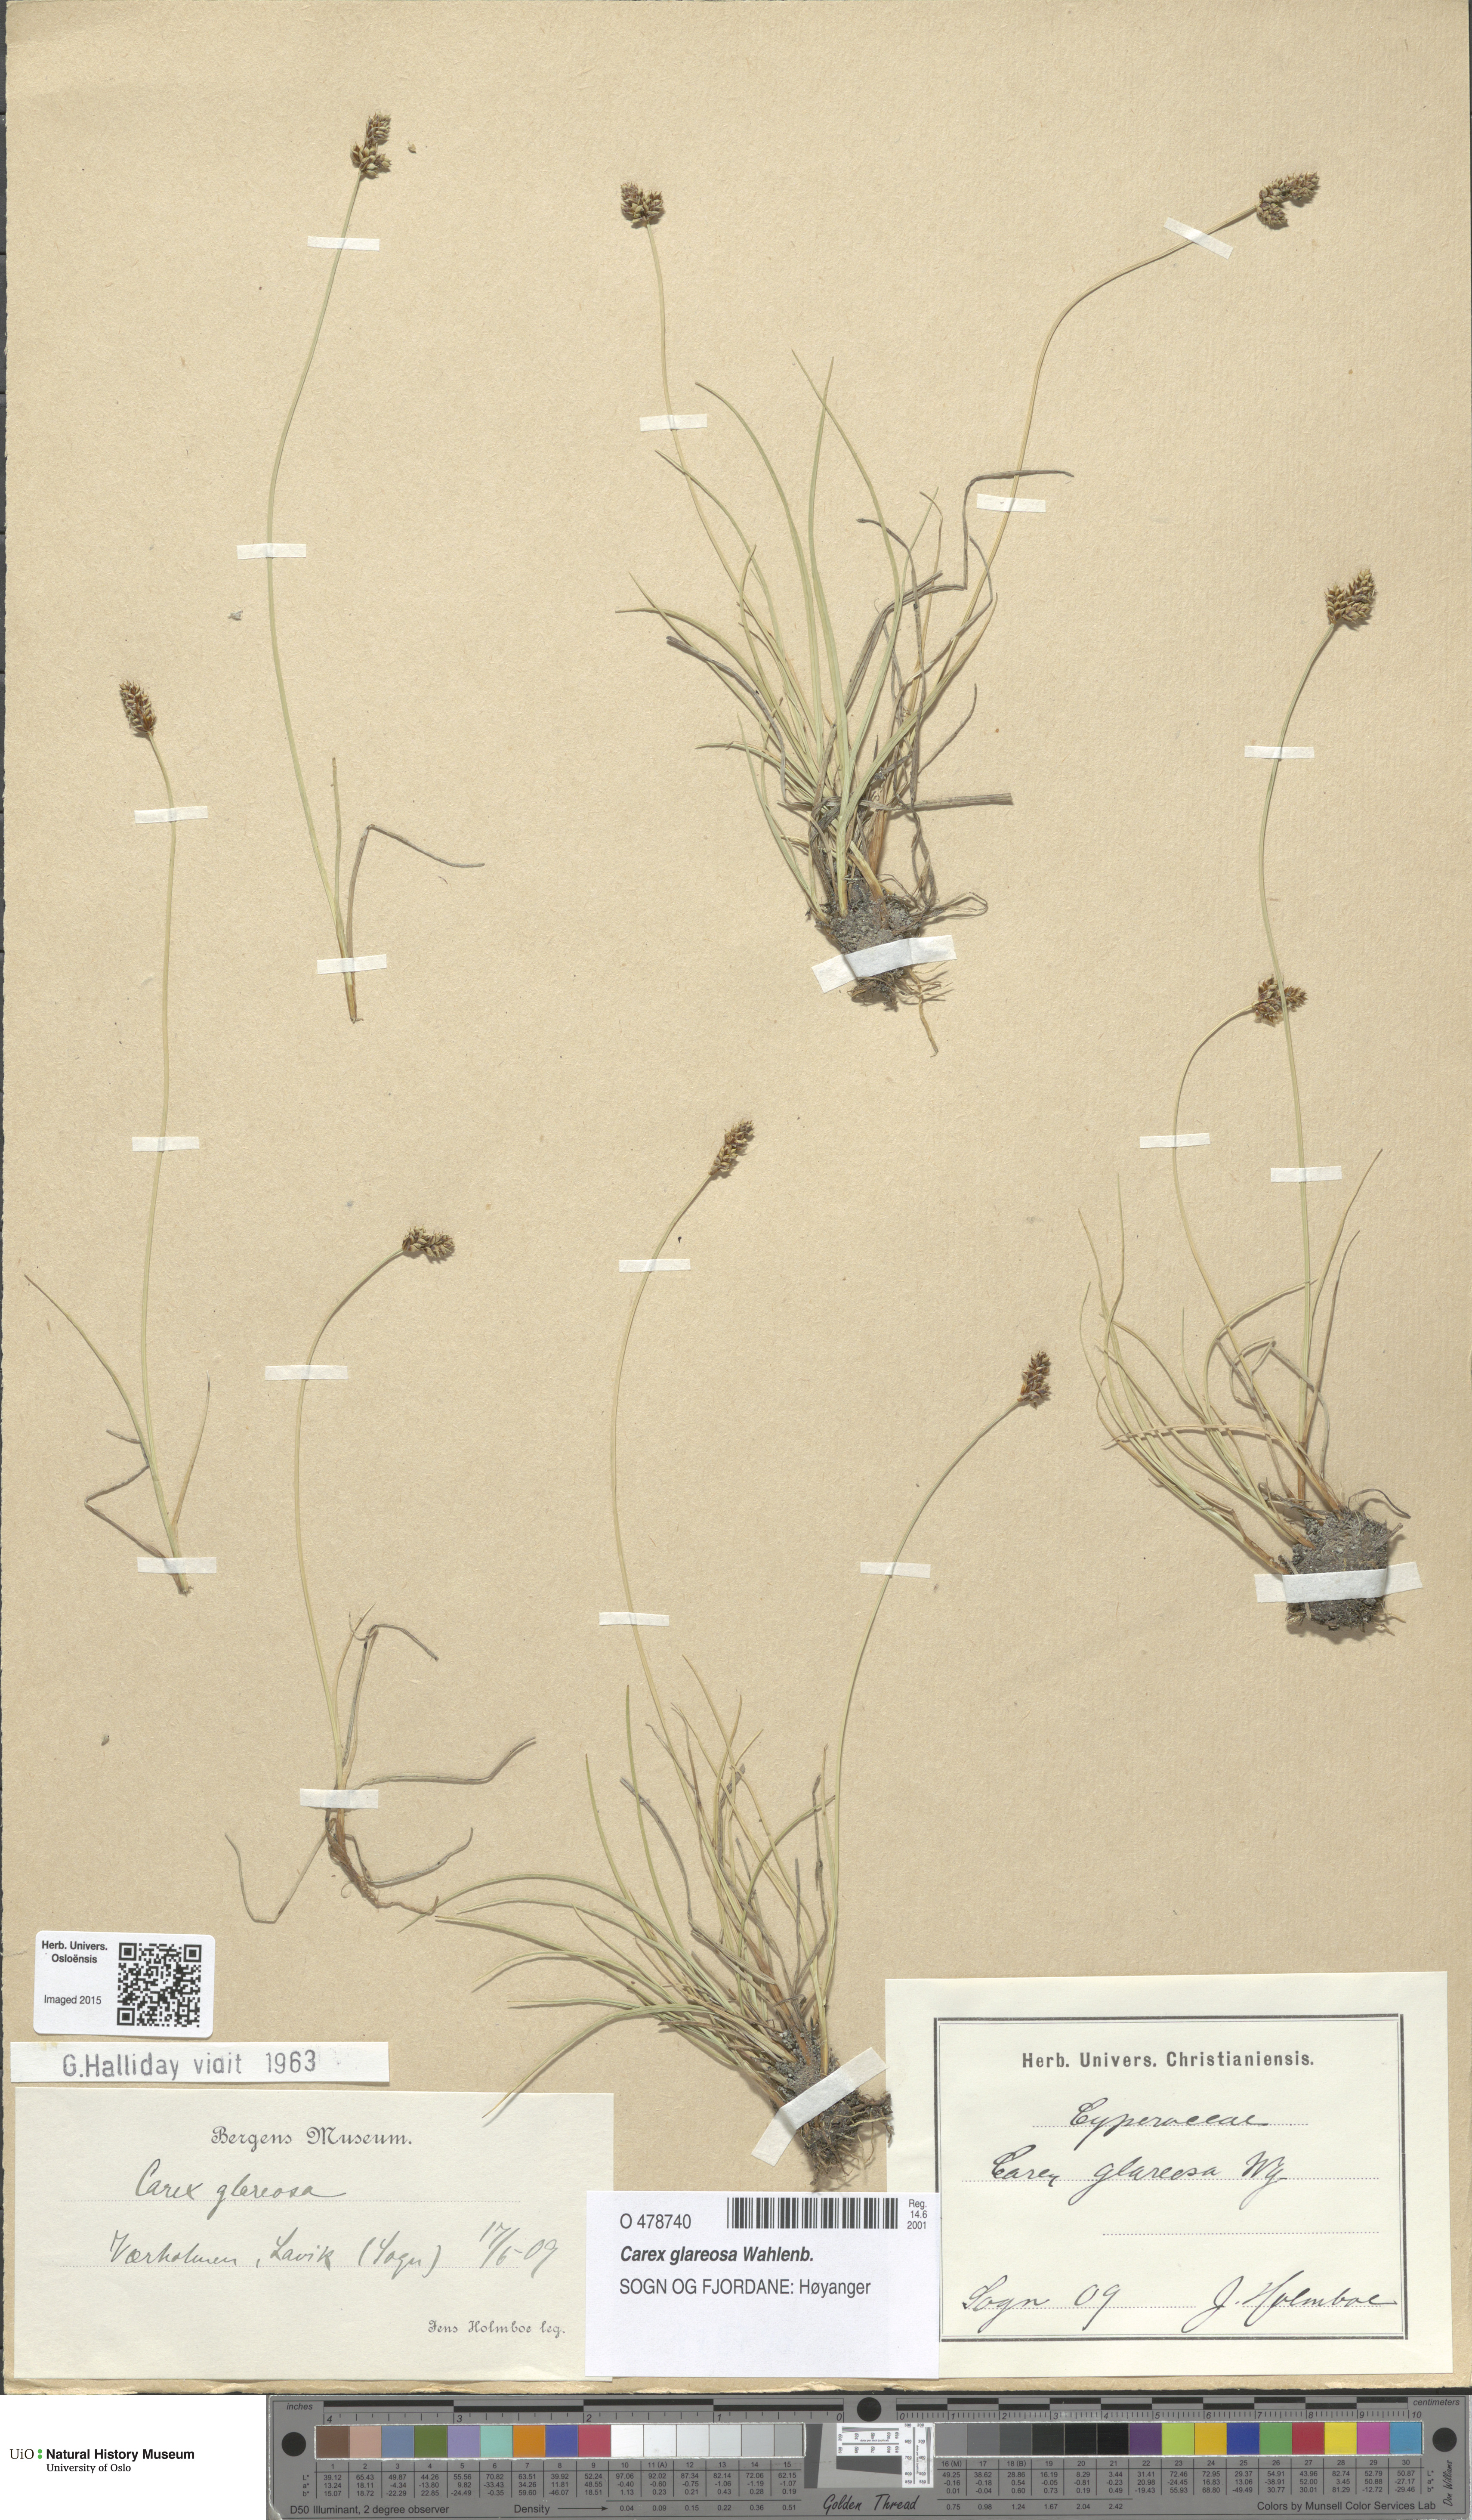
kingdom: Plantae
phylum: Tracheophyta
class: Liliopsida
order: Poales
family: Cyperaceae
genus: Carex
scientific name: Carex glareosa
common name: Clustered sedge
